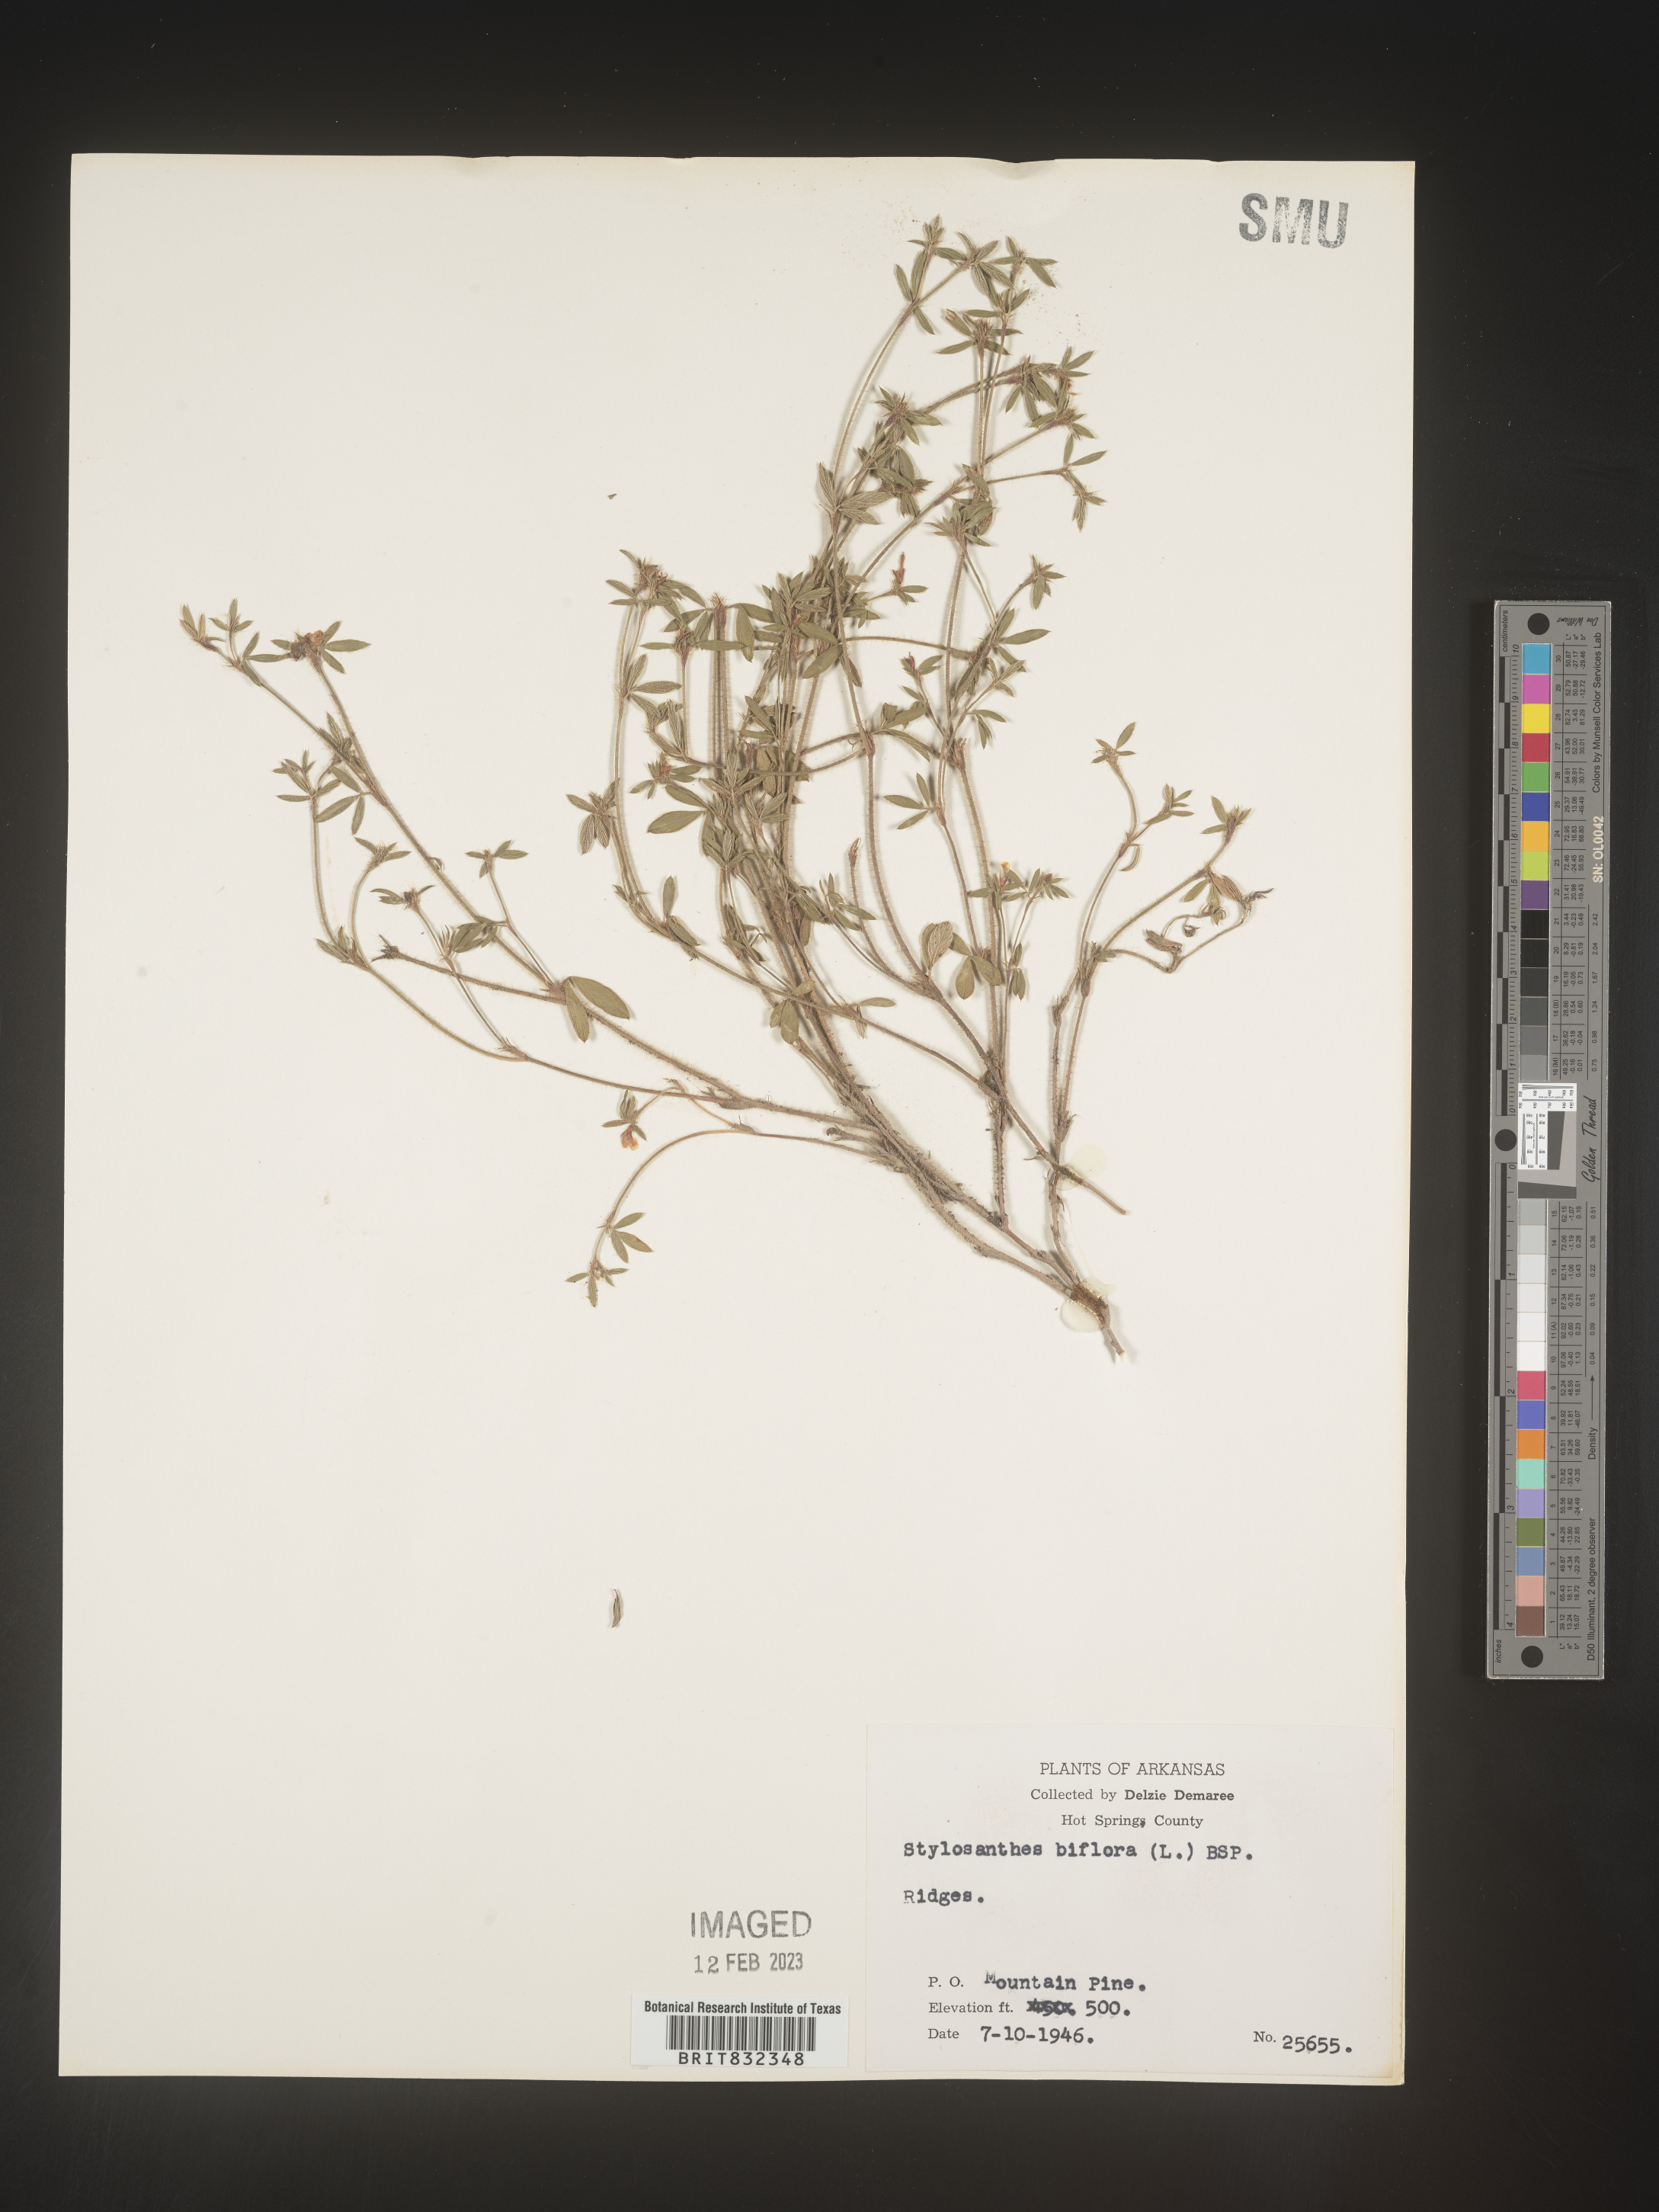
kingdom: Plantae
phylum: Tracheophyta
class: Magnoliopsida
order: Fabales
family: Fabaceae
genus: Stylosanthes
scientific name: Stylosanthes biflora
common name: Two-flower pencil-flower
